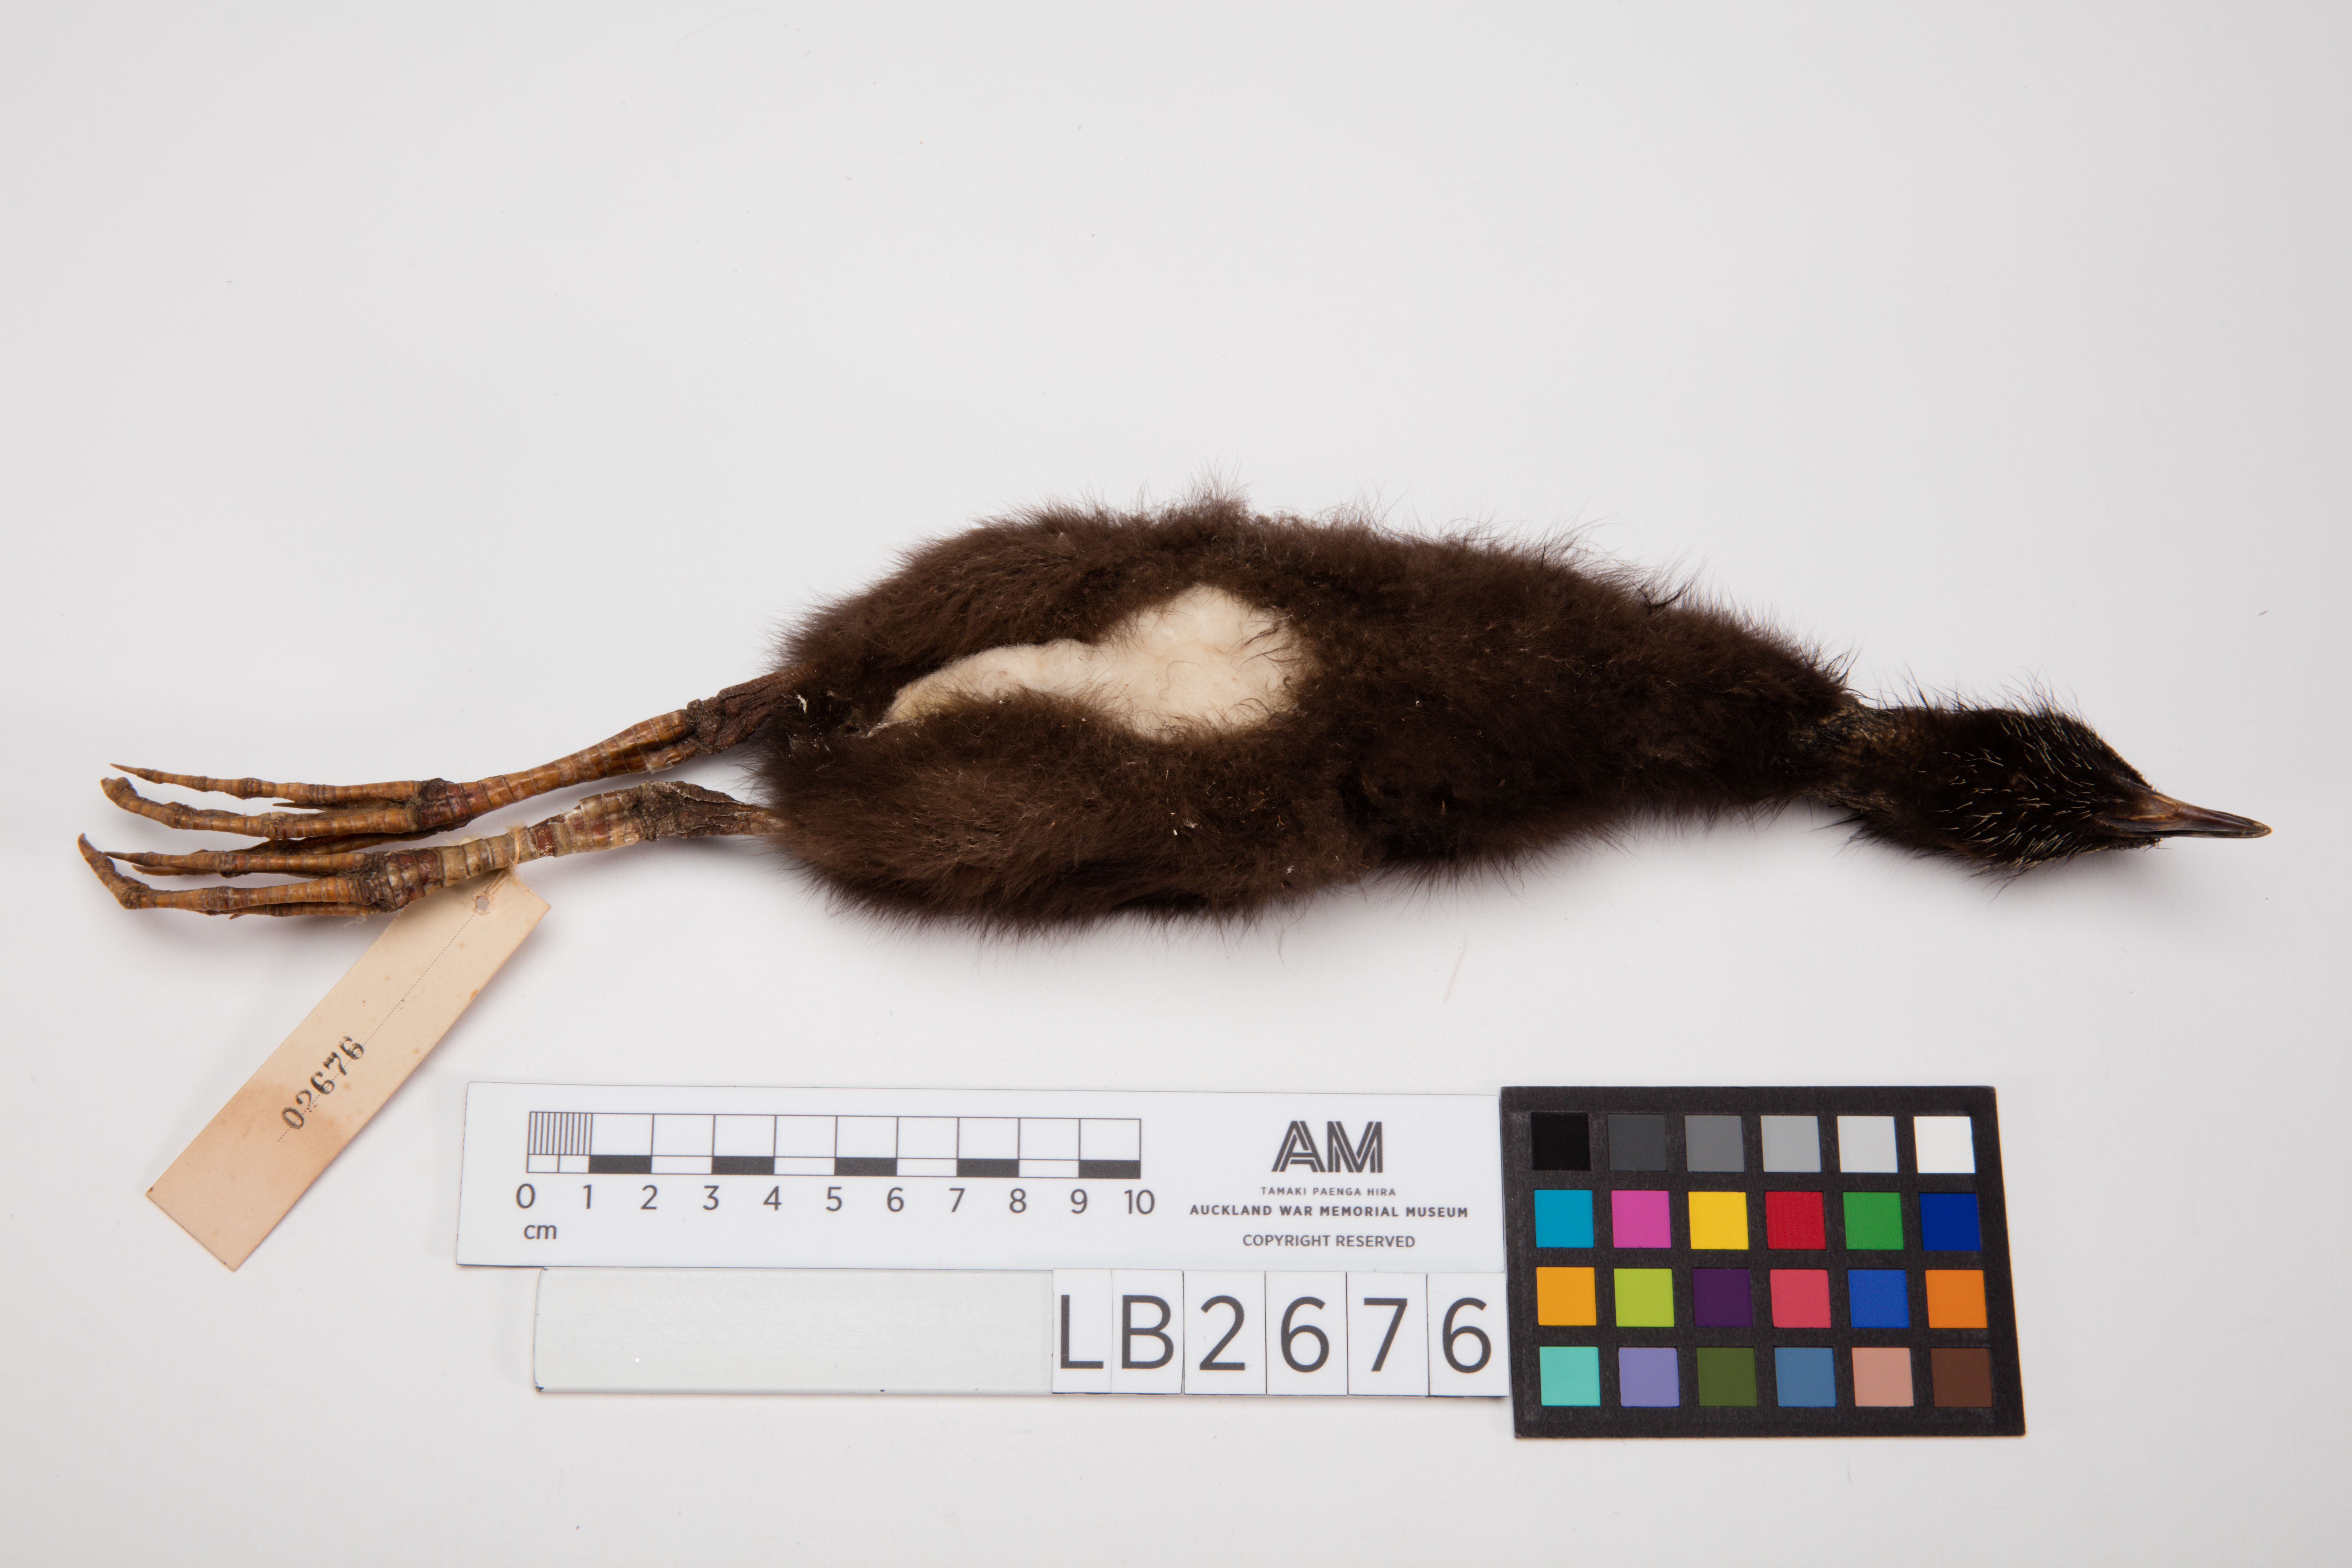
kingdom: Animalia
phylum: Chordata
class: Aves
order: Gruiformes
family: Rallidae
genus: Porphyrio
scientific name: Porphyrio melanotus
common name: Australasian swamphen
